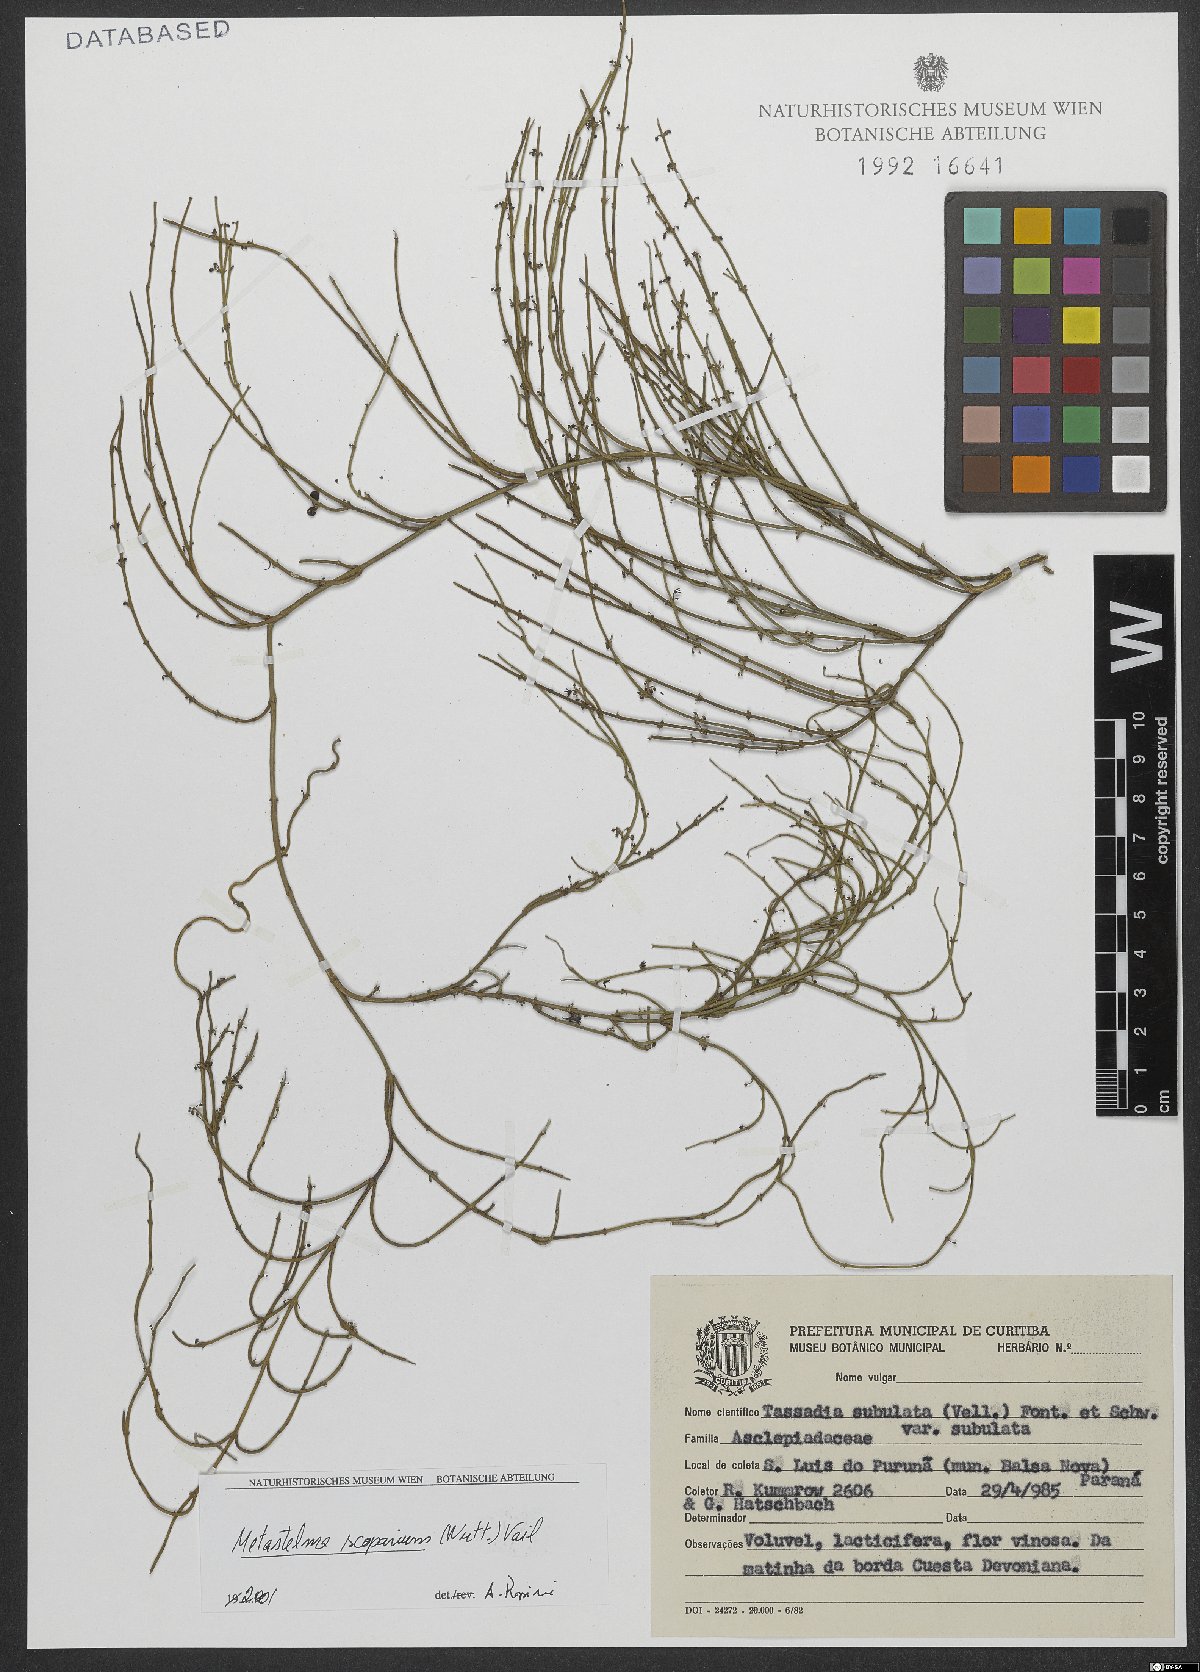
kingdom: Plantae
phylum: Tracheophyta
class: Magnoliopsida
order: Gentianales
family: Apocynaceae
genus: Orthosia
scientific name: Orthosia scoparia
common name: Leafless swallow-wort
